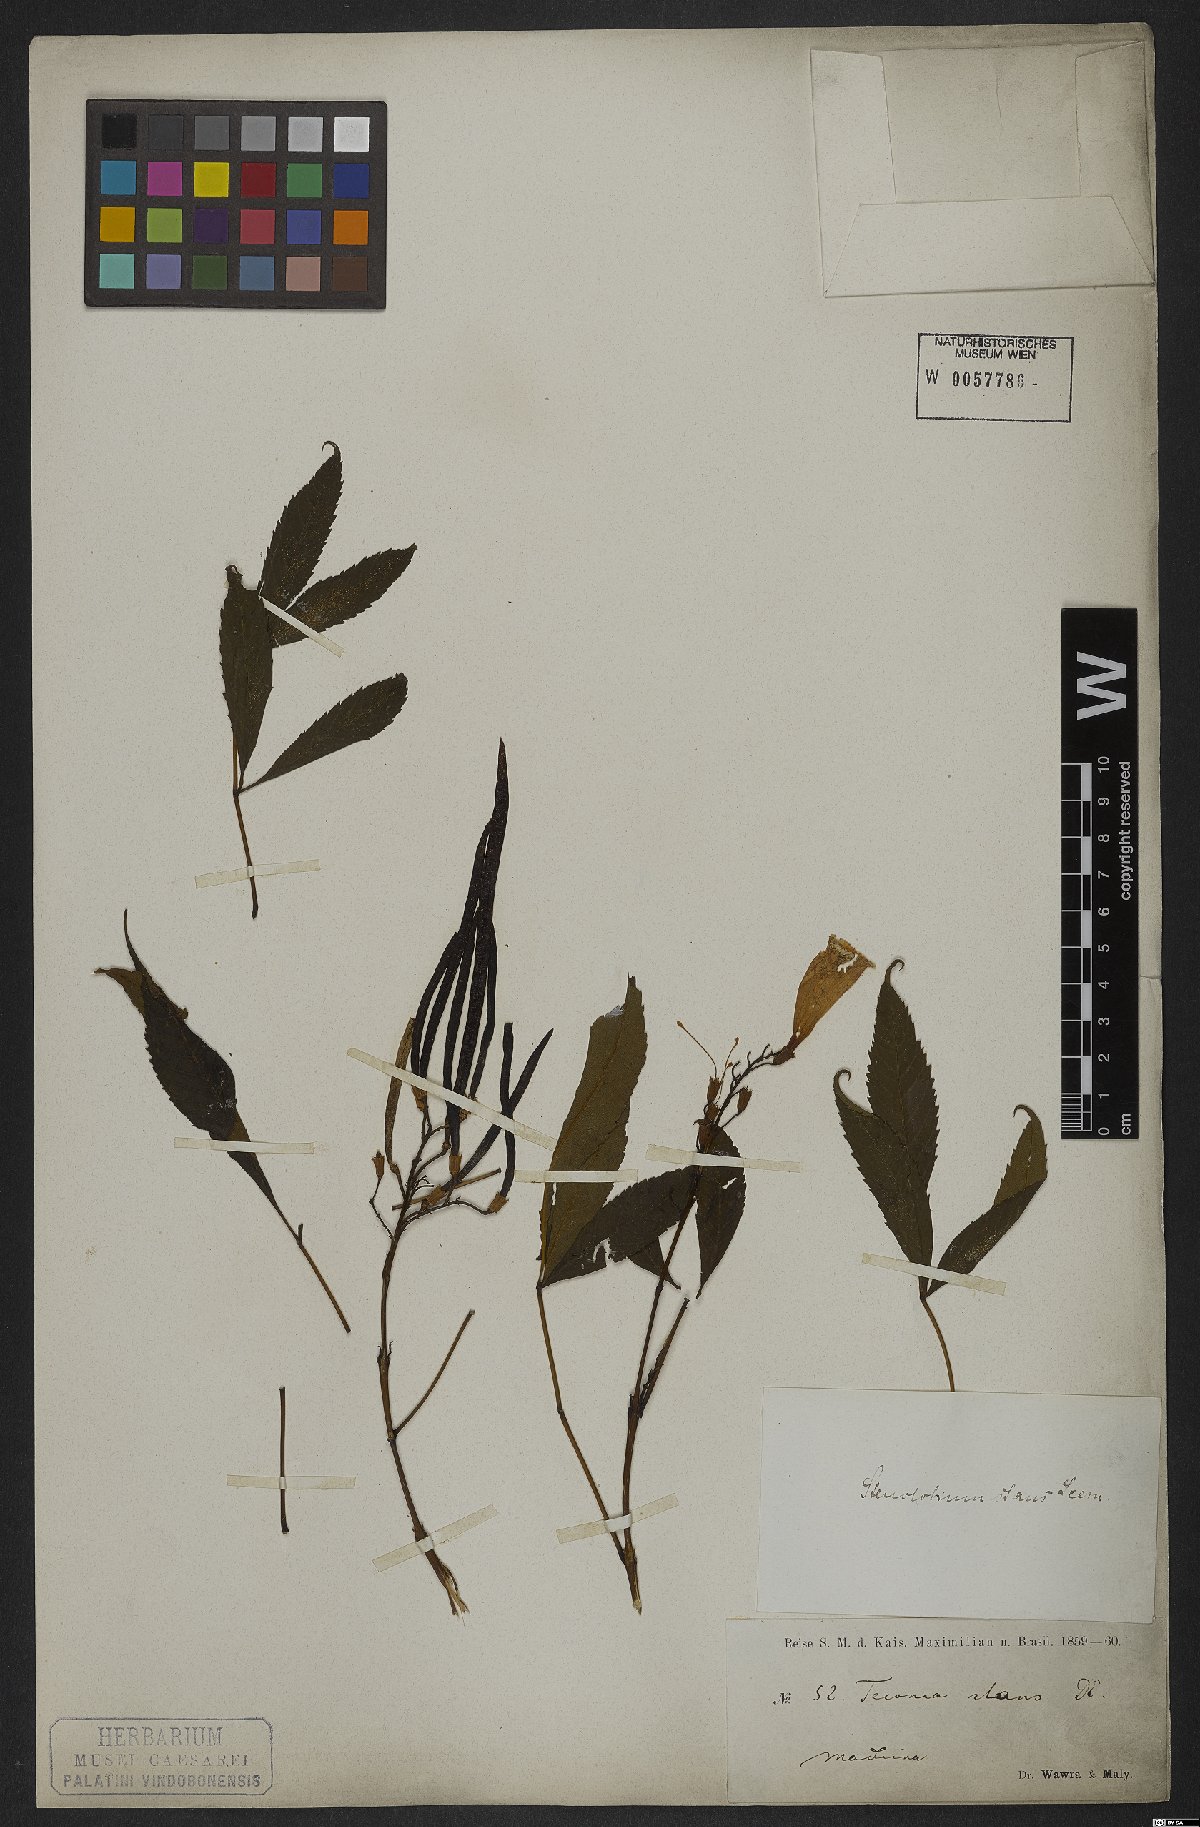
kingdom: Plantae
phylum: Tracheophyta
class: Magnoliopsida
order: Lamiales
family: Bignoniaceae
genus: Tecoma
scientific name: Tecoma stans
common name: Yellow trumpetbush
